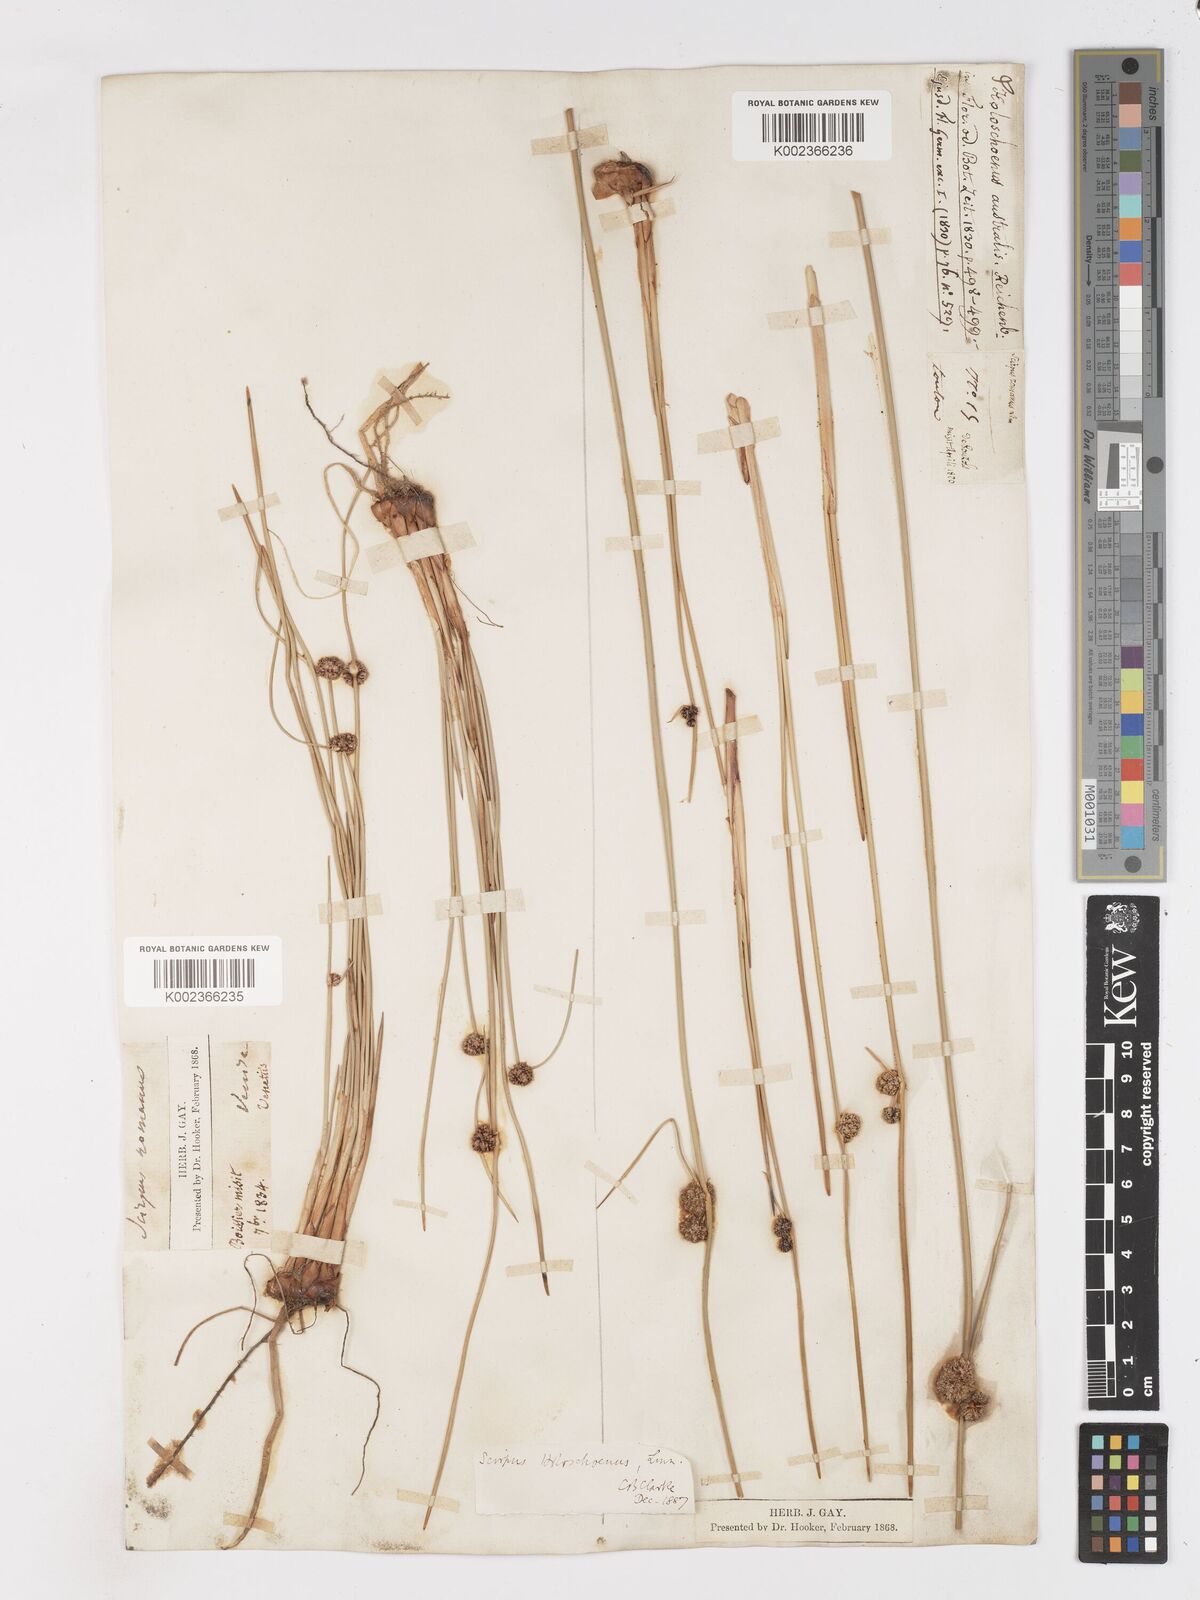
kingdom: Plantae
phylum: Tracheophyta
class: Liliopsida
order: Poales
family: Cyperaceae
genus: Scirpoides
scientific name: Scirpoides holoschoenus
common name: Round-headed club-rush
